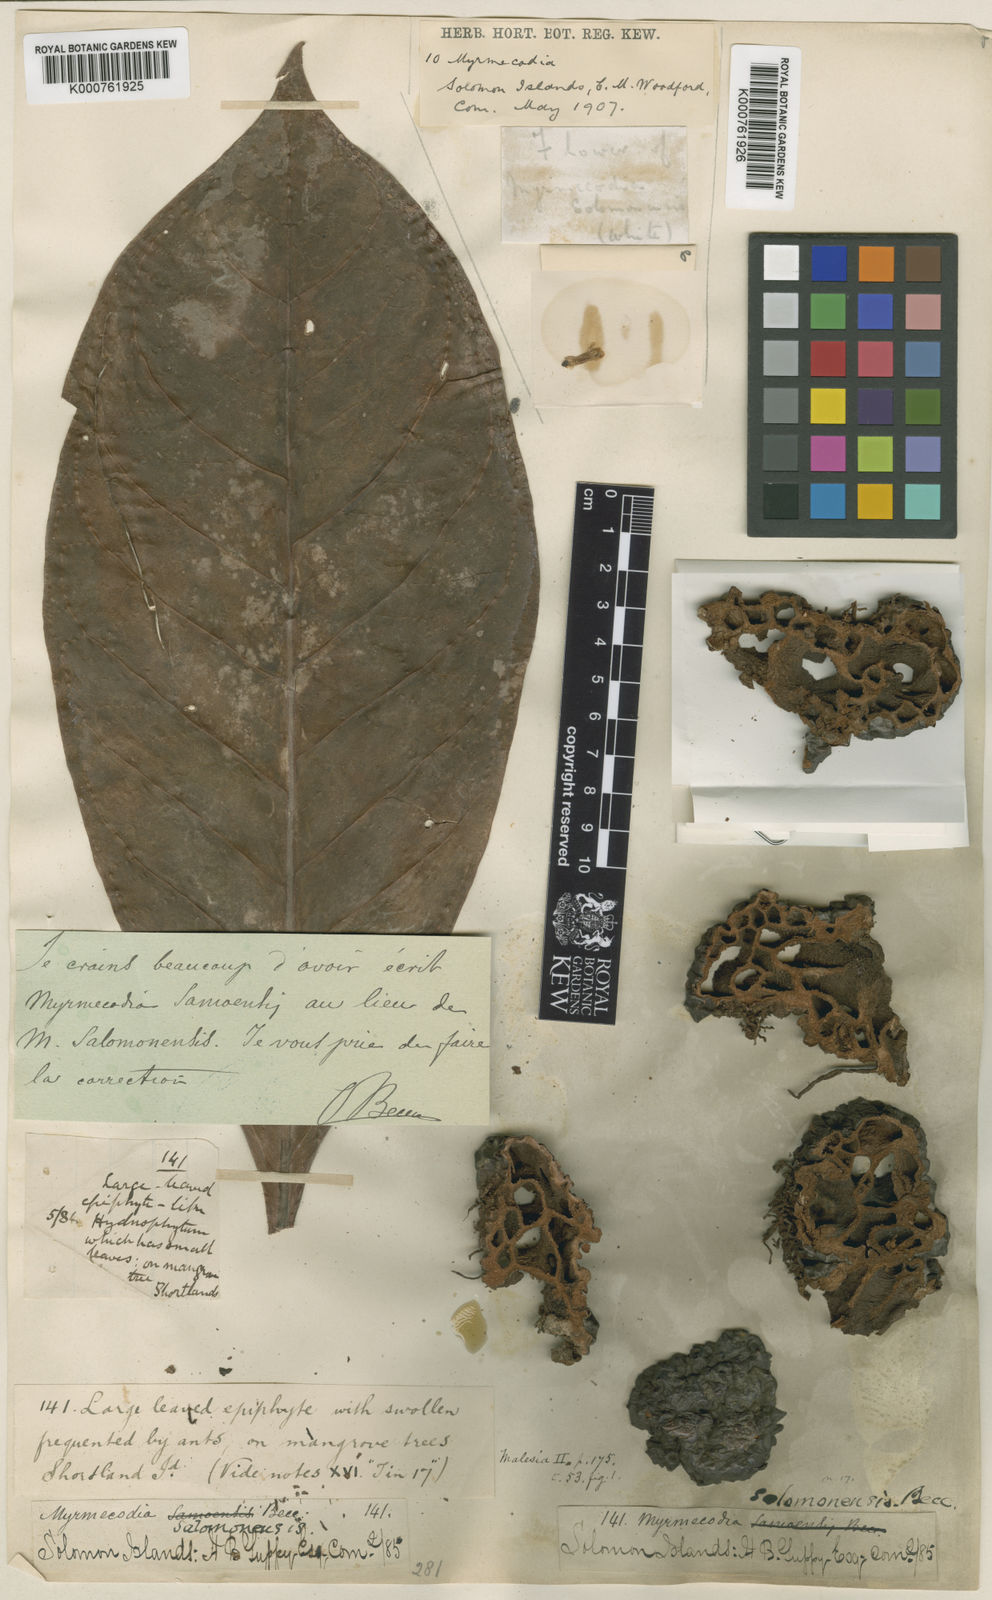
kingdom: Plantae
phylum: Tracheophyta
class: Magnoliopsida
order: Gentianales
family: Rubiaceae
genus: Myrmecodia
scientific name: Myrmecodia tuberosa
